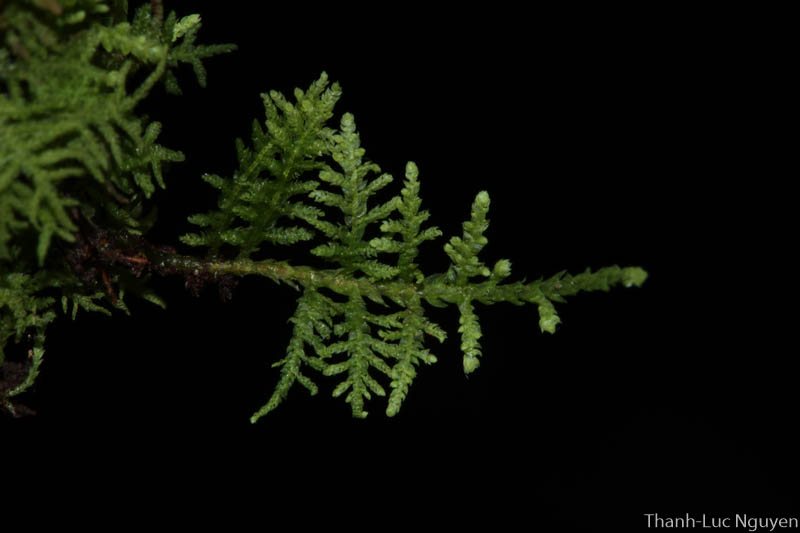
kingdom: Plantae
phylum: Bryophyta
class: Bryopsida
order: Hypnales
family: Thuidiaceae
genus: Thuidium
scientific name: Thuidium
